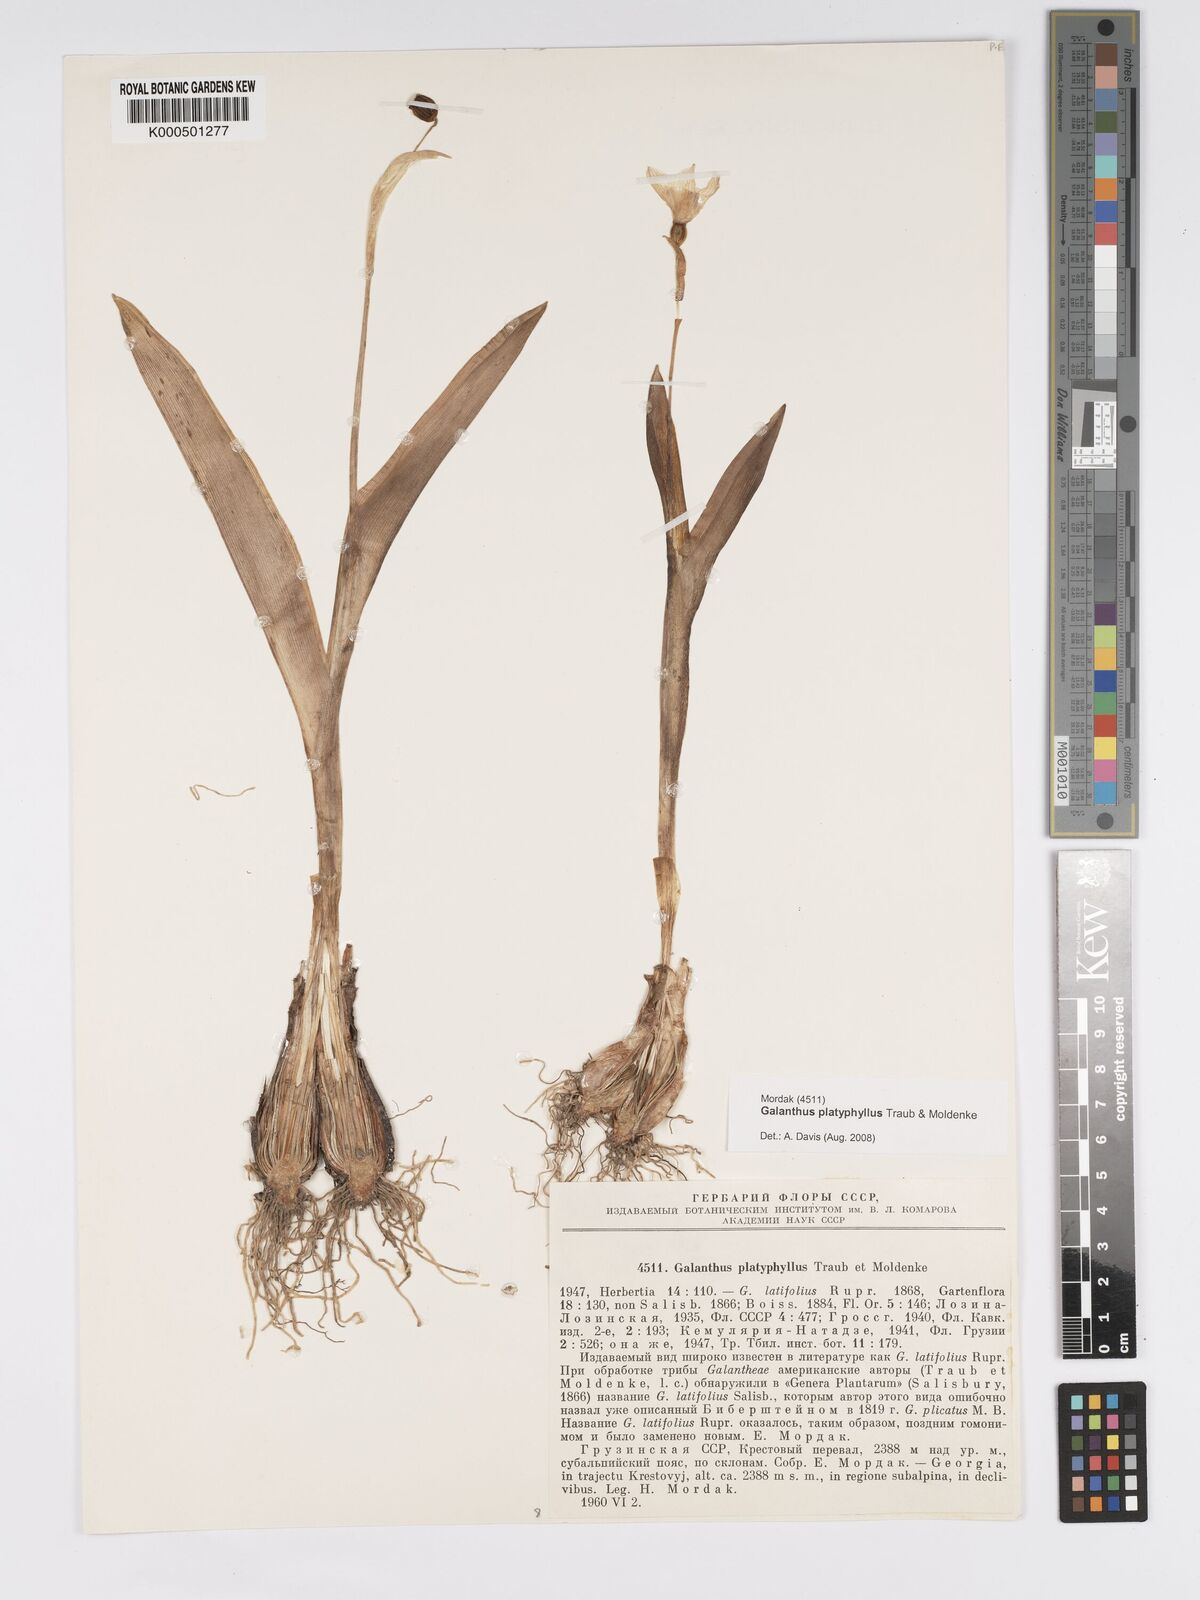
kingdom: Plantae
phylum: Tracheophyta
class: Liliopsida
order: Asparagales
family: Amaryllidaceae
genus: Galanthus
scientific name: Galanthus platyphyllus
